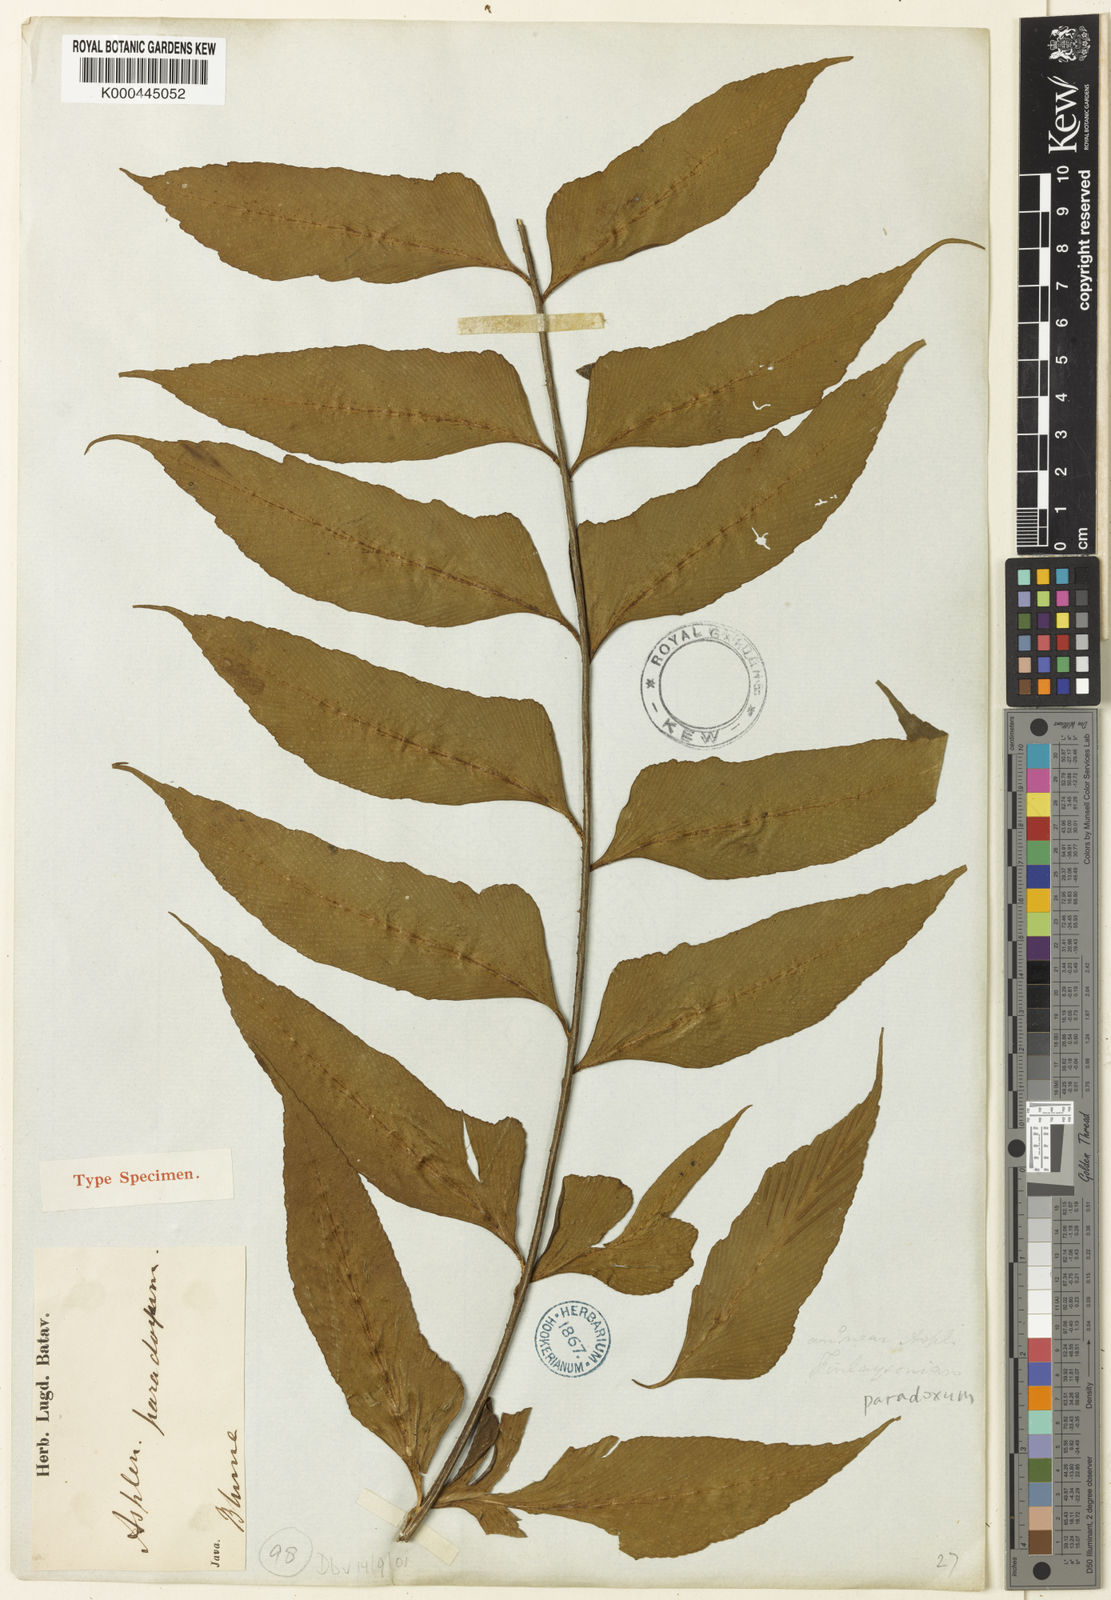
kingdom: Plantae
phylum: Tracheophyta
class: Polypodiopsida
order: Polypodiales
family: Aspleniaceae
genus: Asplenium
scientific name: Asplenium falcatum
